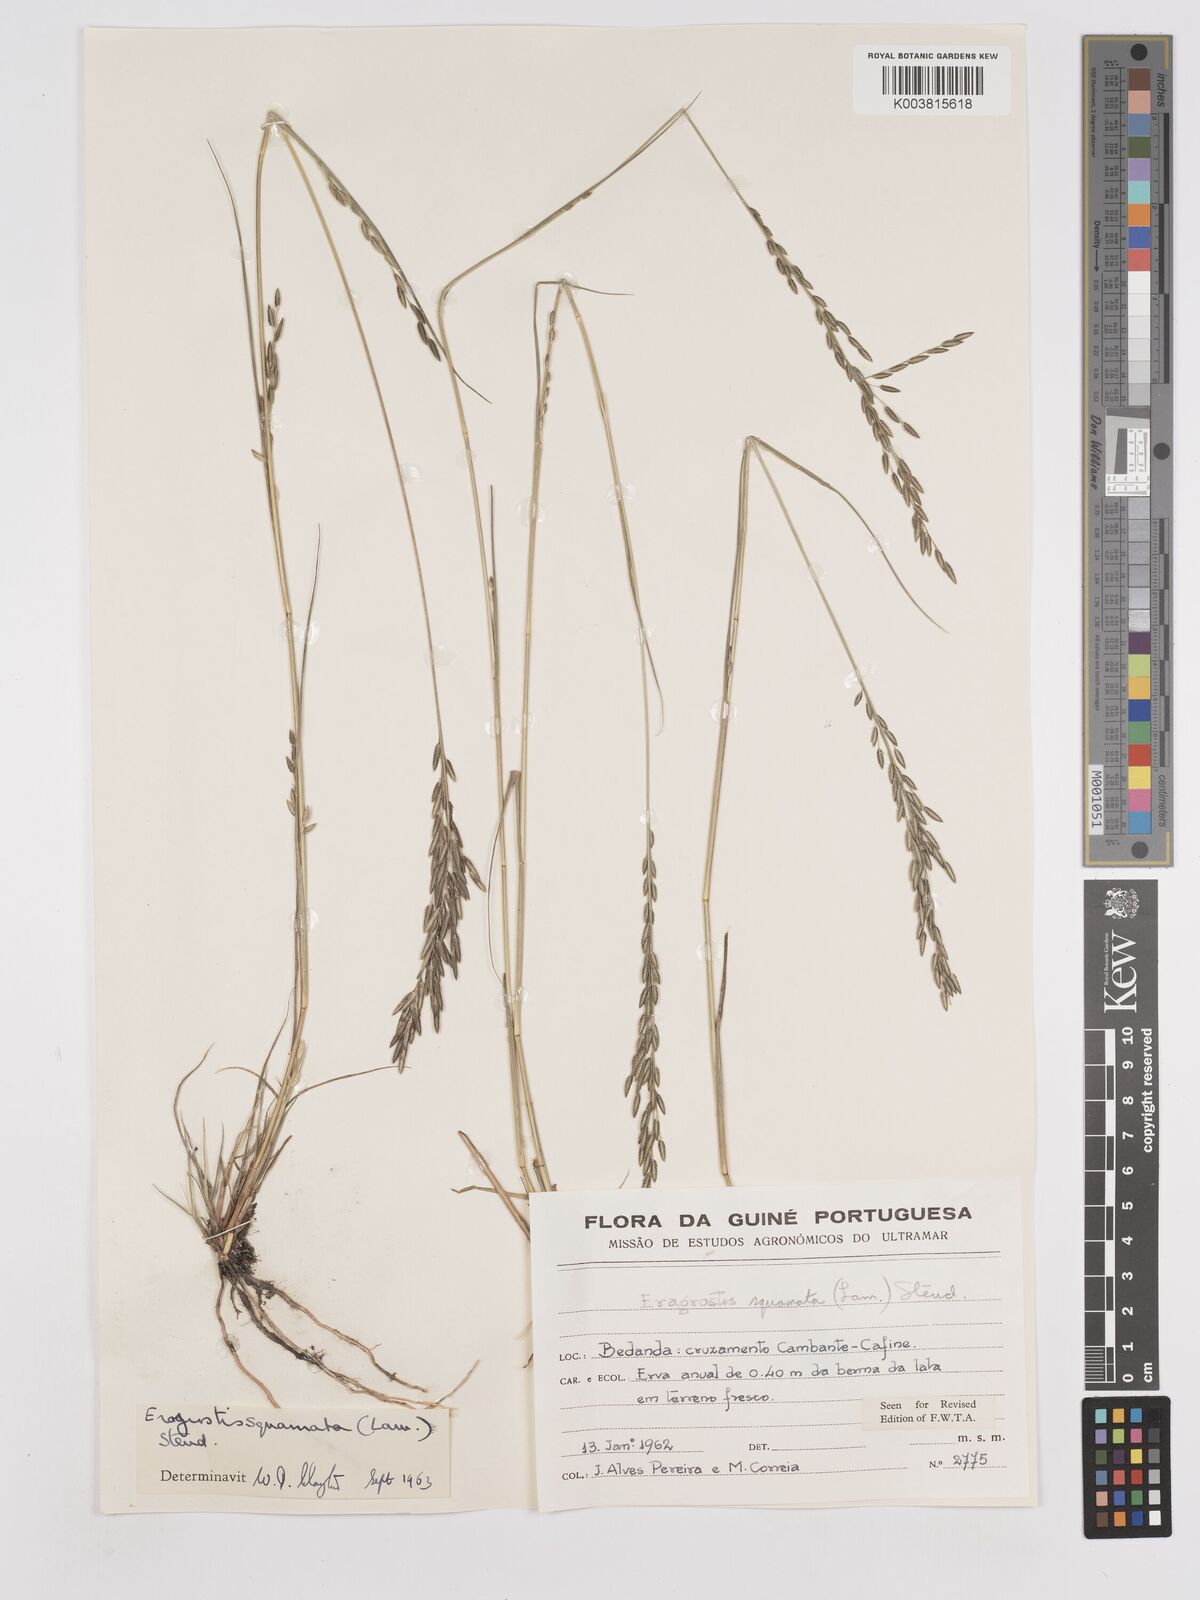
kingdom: Plantae
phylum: Tracheophyta
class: Liliopsida
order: Poales
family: Poaceae
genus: Eragrostis
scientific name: Eragrostis squamata
